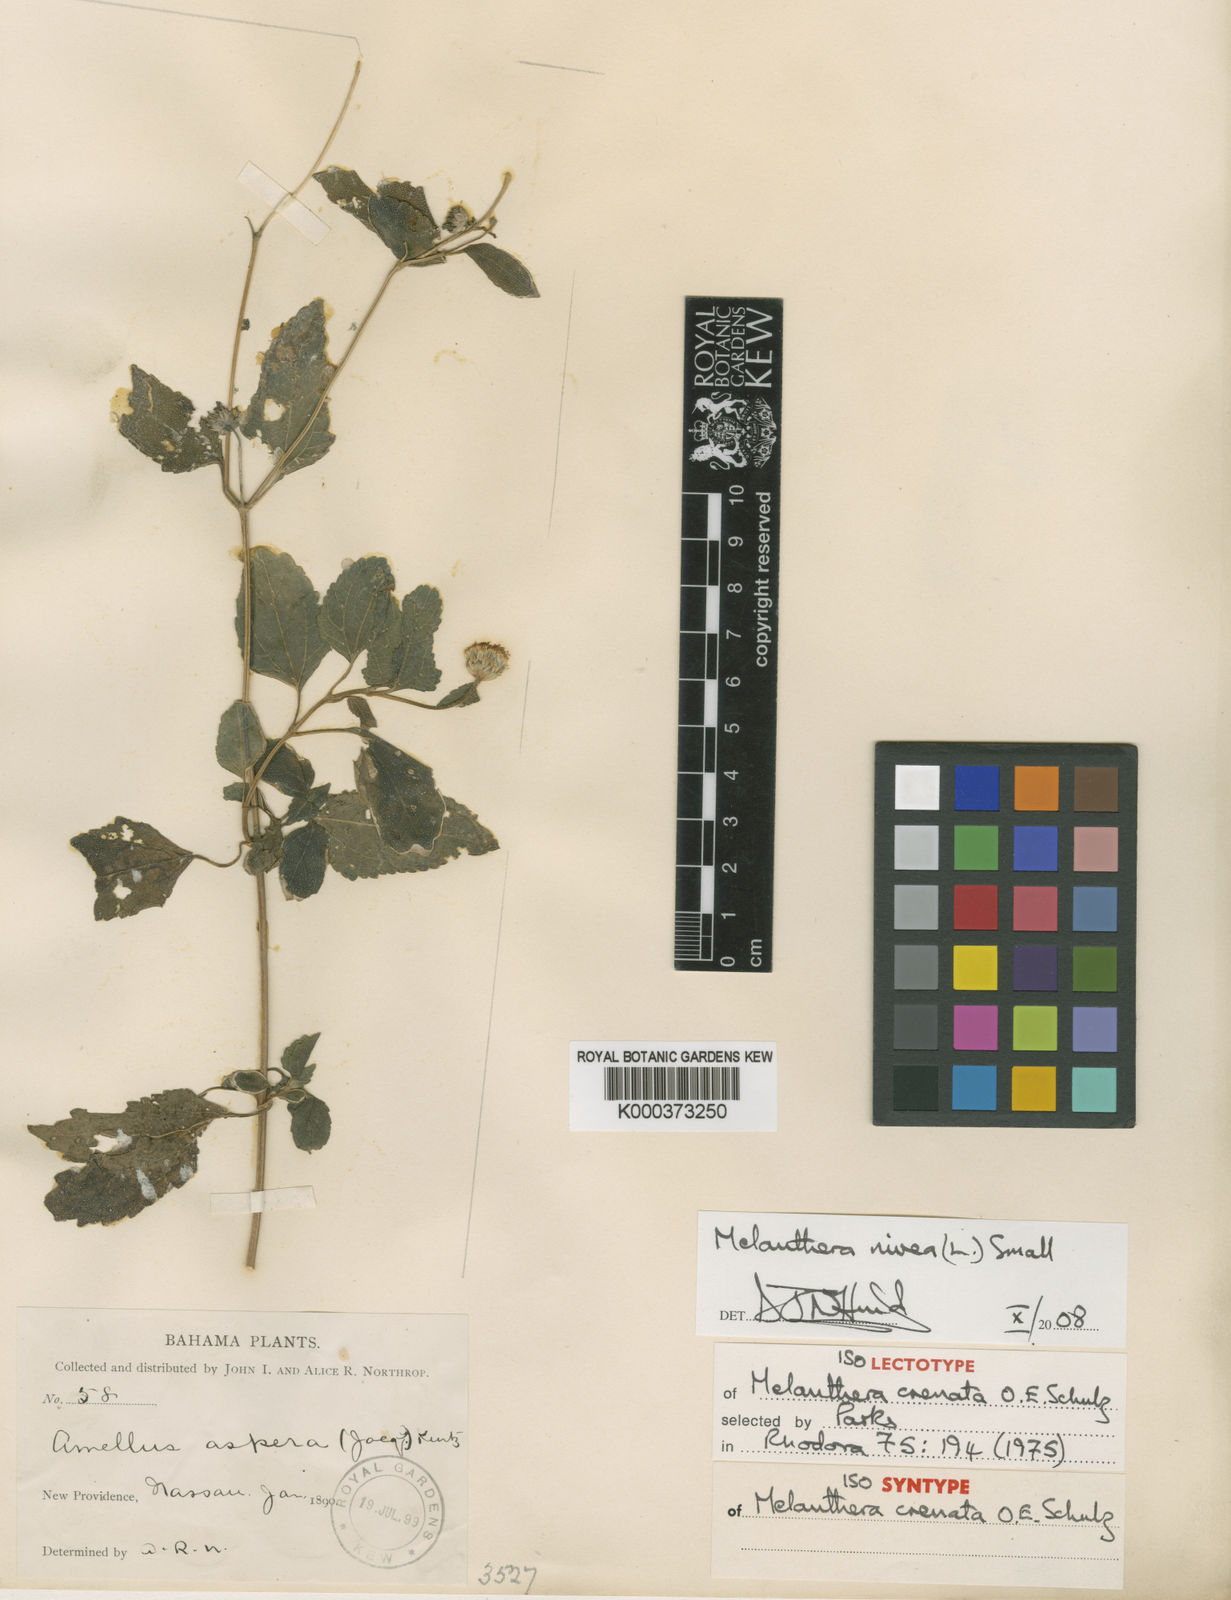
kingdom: Plantae
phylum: Tracheophyta
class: Magnoliopsida
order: Asterales
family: Asteraceae
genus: Melanthera
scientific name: Melanthera nivea
